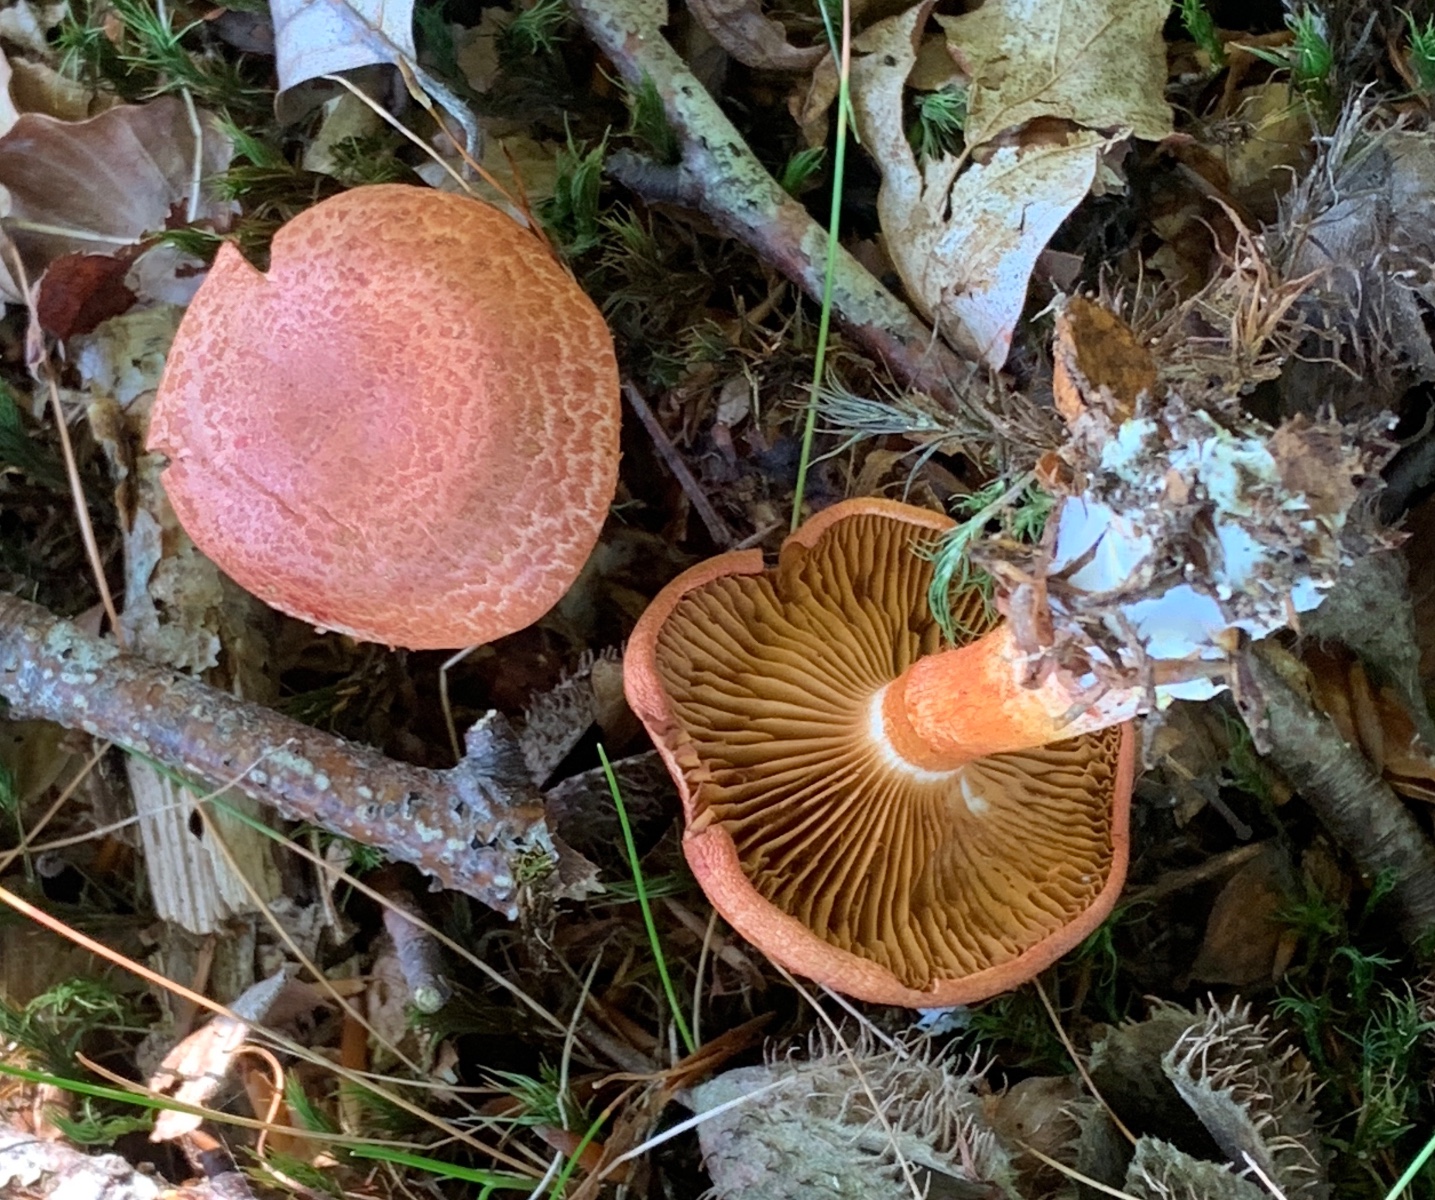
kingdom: Fungi
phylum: Basidiomycota
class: Agaricomycetes
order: Agaricales
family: Cortinariaceae
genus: Cortinarius
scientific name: Cortinarius bolaris
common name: cinnoberskællet slørhat
